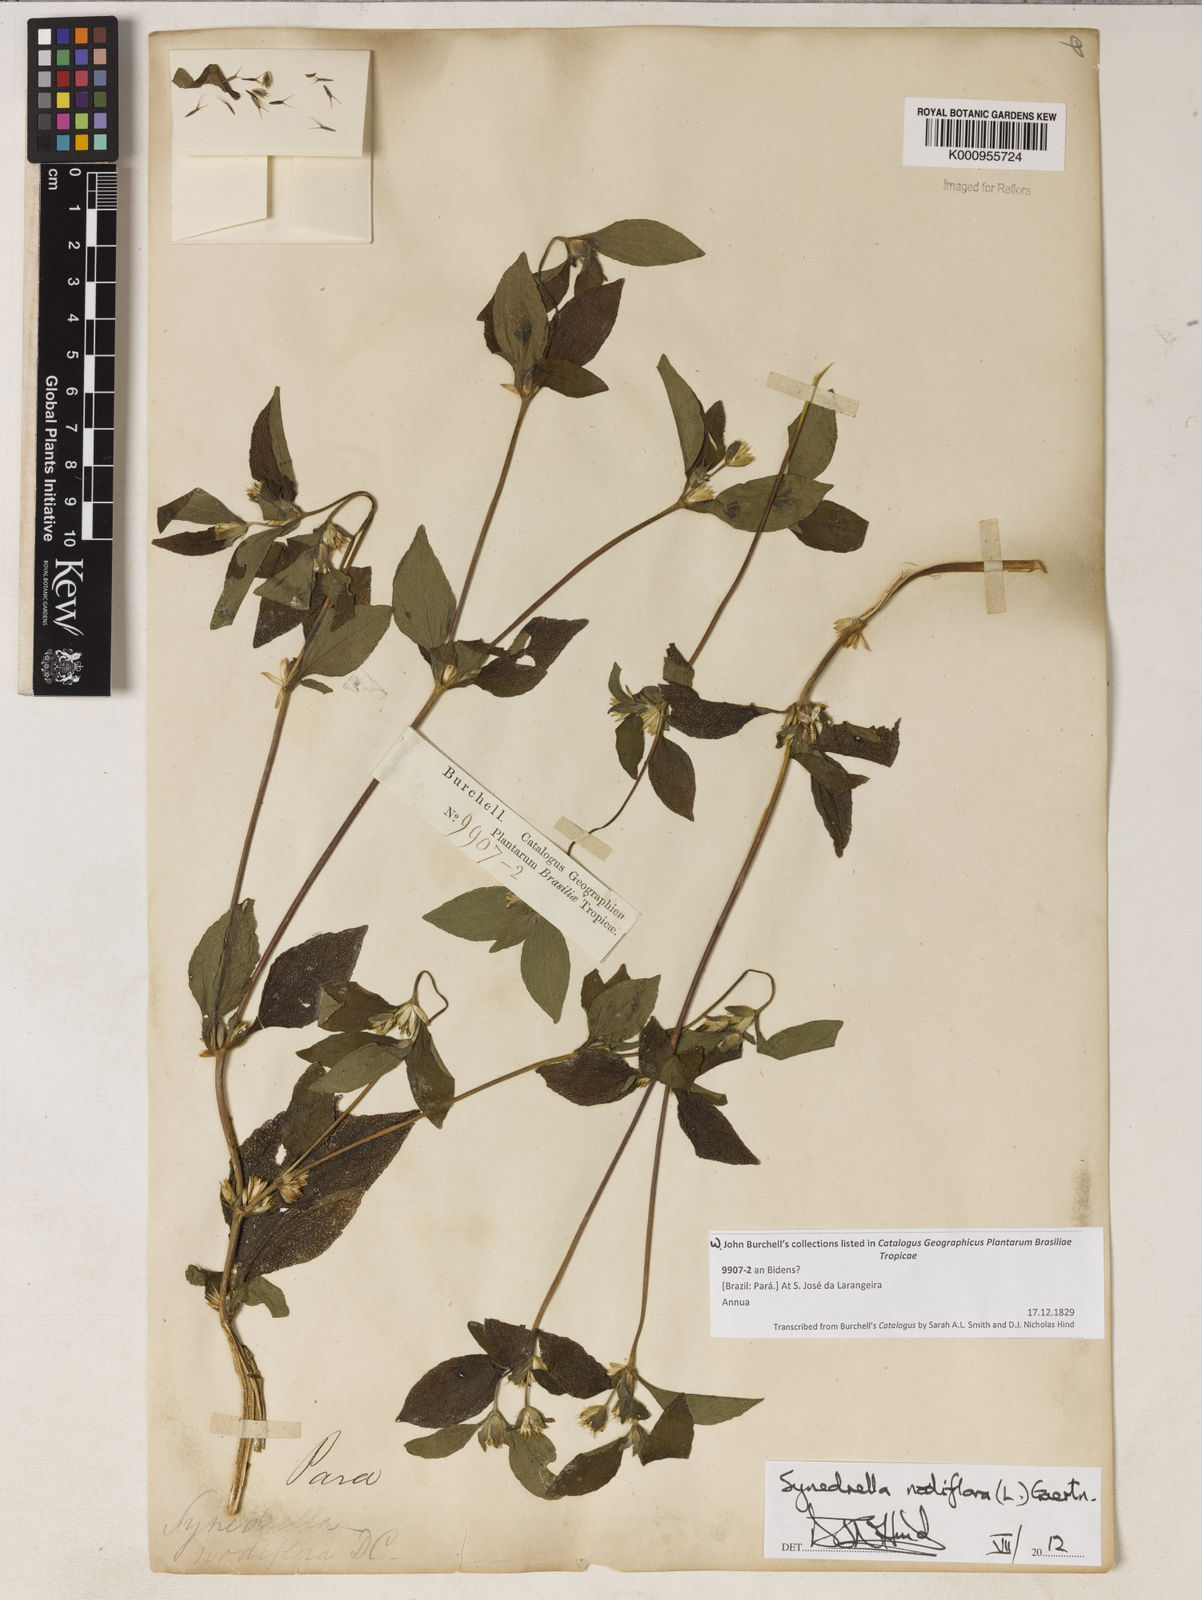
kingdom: Plantae
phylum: Tracheophyta
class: Magnoliopsida
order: Asterales
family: Asteraceae
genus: Synedrella
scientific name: Synedrella nodiflora
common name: Nodeweed
